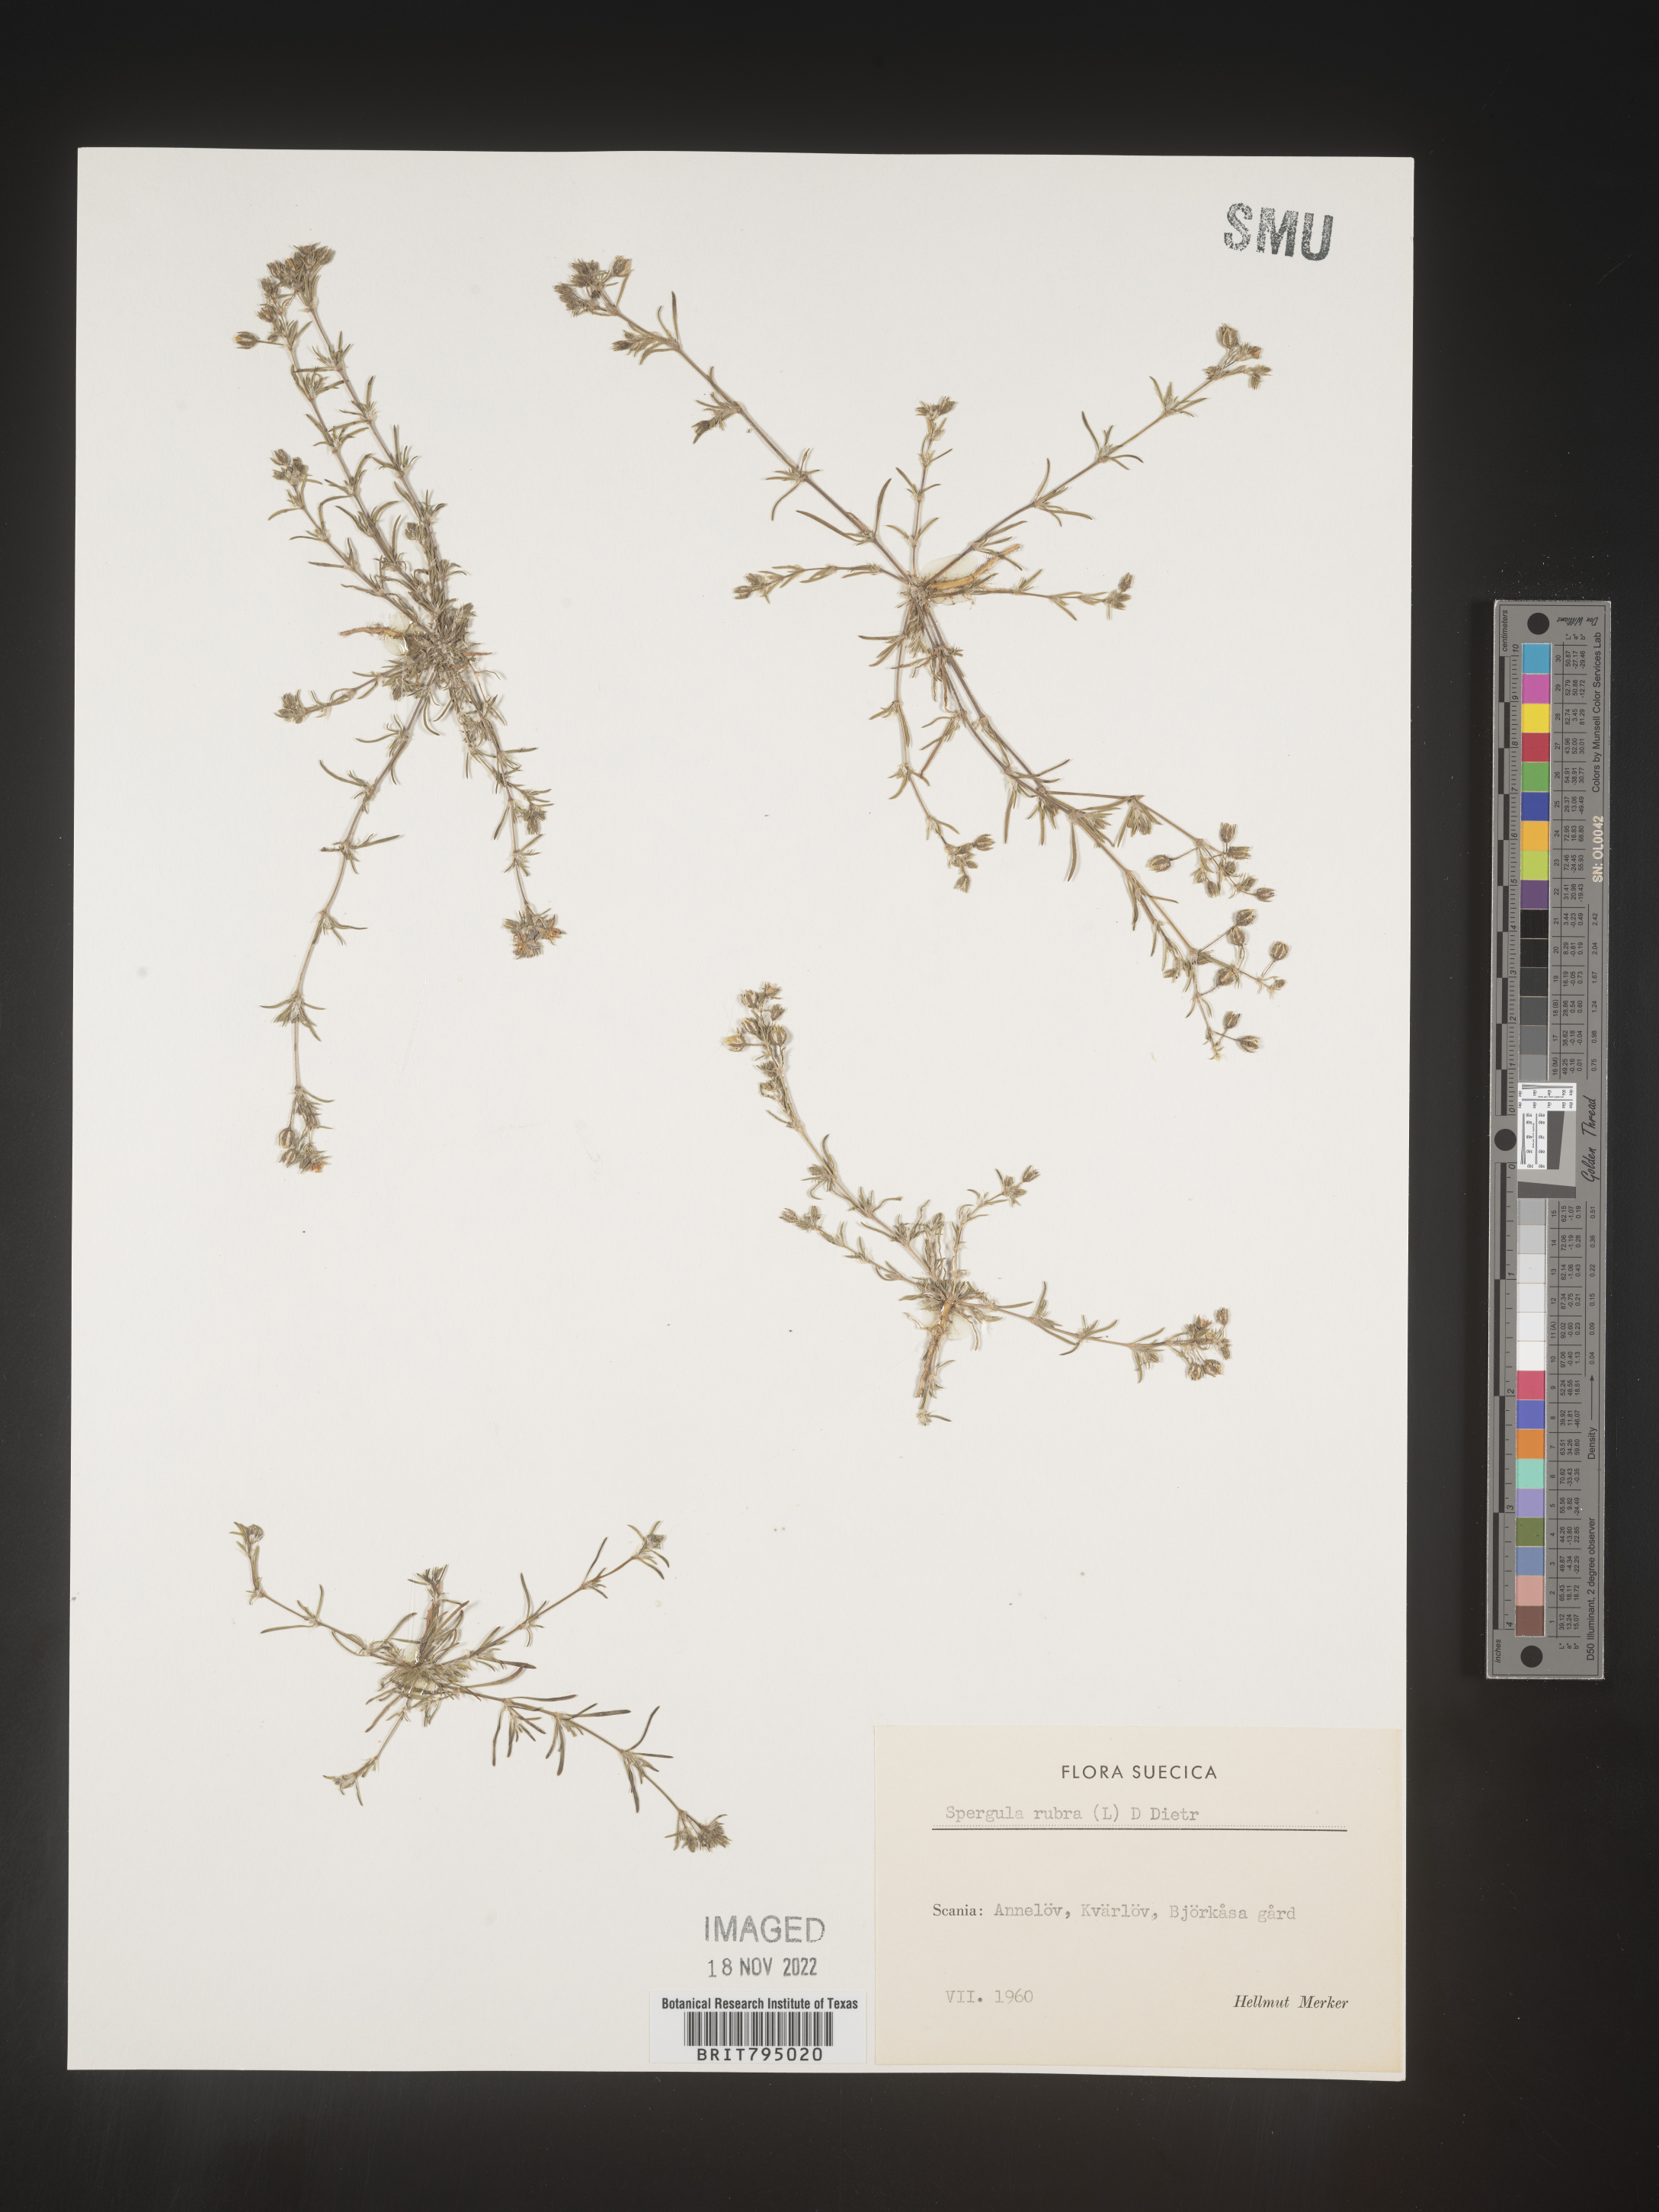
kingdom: Plantae
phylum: Tracheophyta
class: Magnoliopsida
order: Caryophyllales
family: Caryophyllaceae
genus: Spergula
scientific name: Spergula rubra
